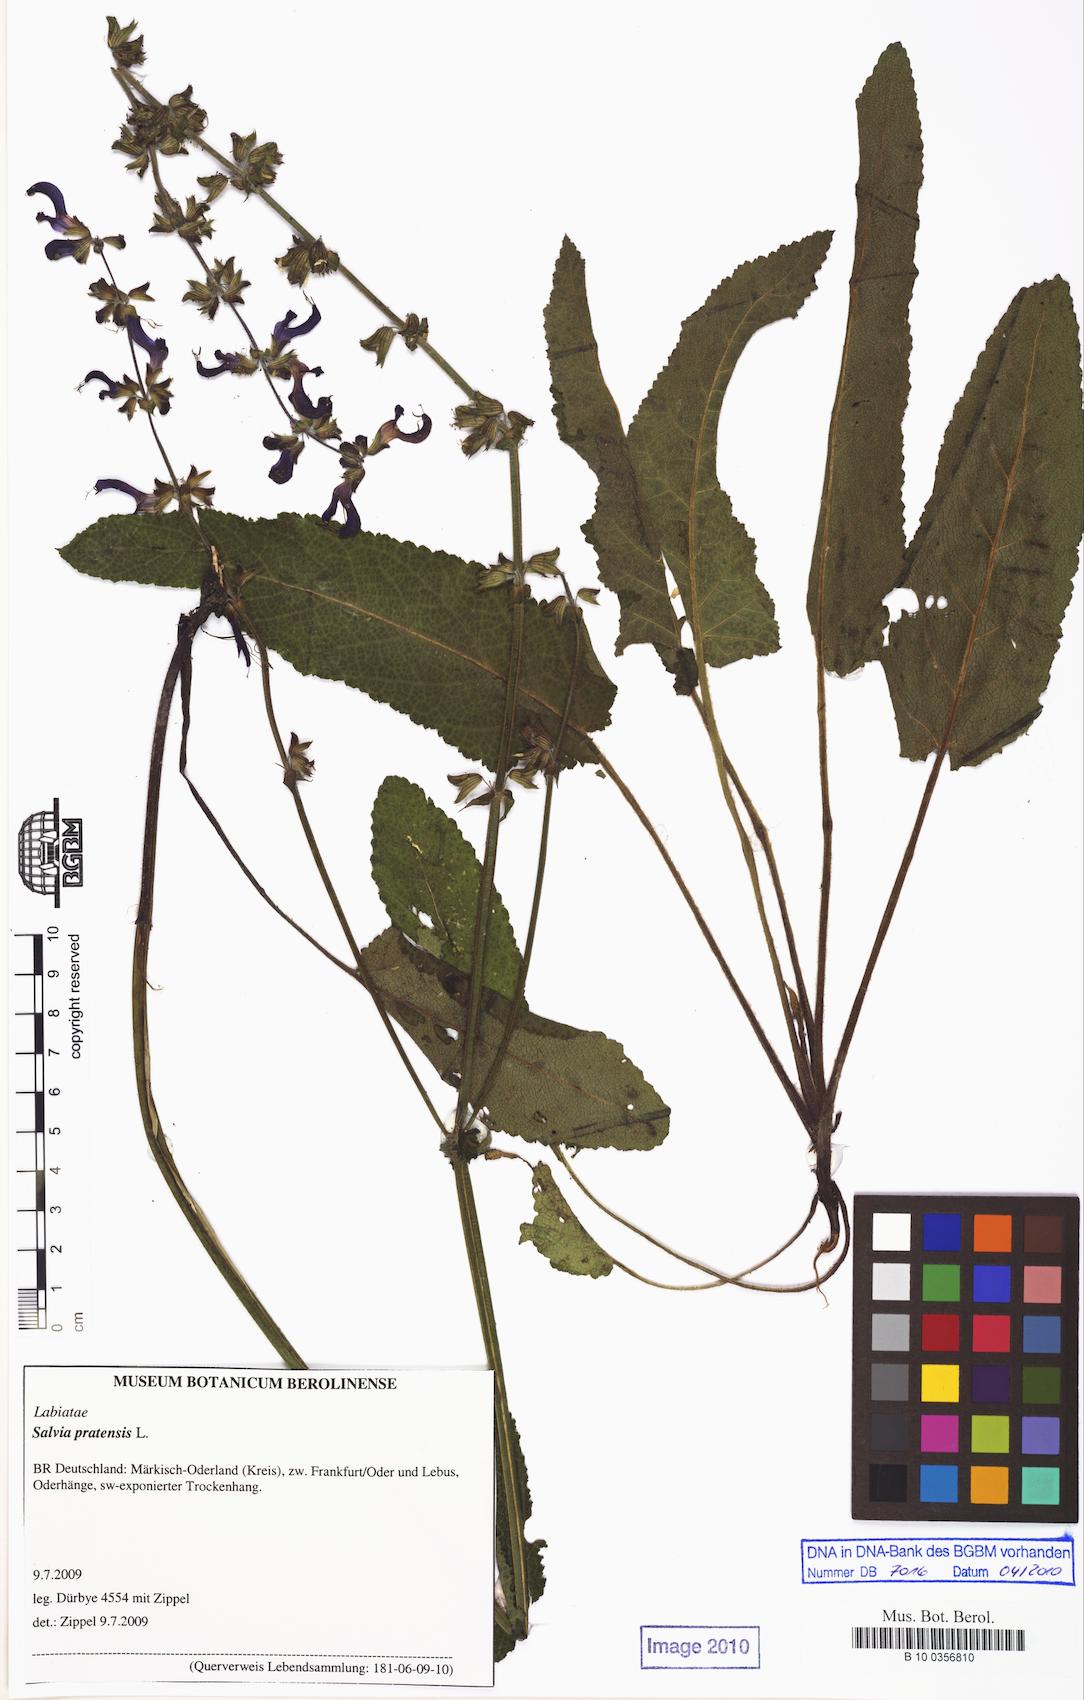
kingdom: Plantae
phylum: Tracheophyta
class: Magnoliopsida
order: Lamiales
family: Lamiaceae
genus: Salvia
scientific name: Salvia pratensis
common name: Meadow sage
